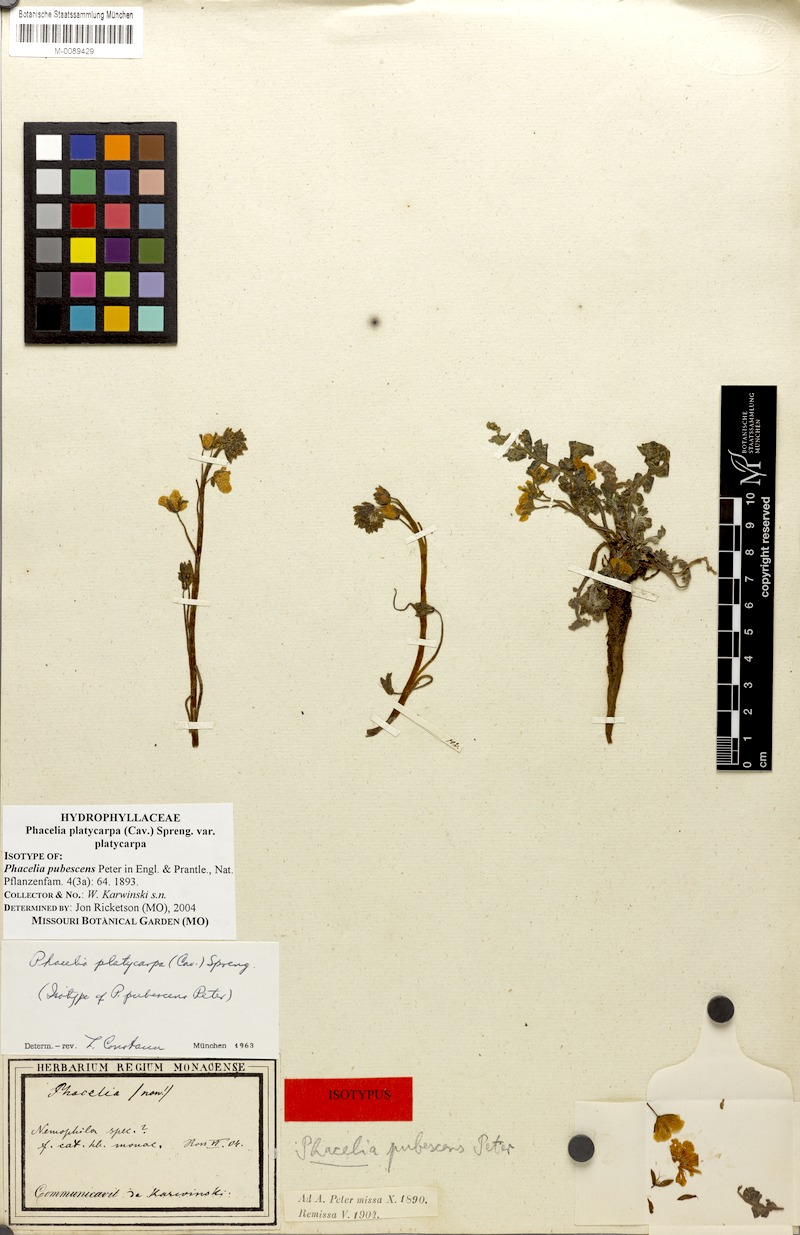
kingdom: Plantae
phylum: Tracheophyta
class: Magnoliopsida
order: Boraginales
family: Hydrophyllaceae
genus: Phacelia
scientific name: Phacelia platycarpa
